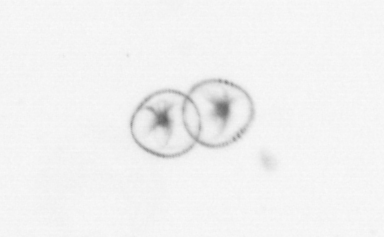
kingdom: Chromista
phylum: Myzozoa
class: Dinophyceae
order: Noctilucales
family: Noctilucaceae
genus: Noctiluca
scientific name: Noctiluca scintillans
